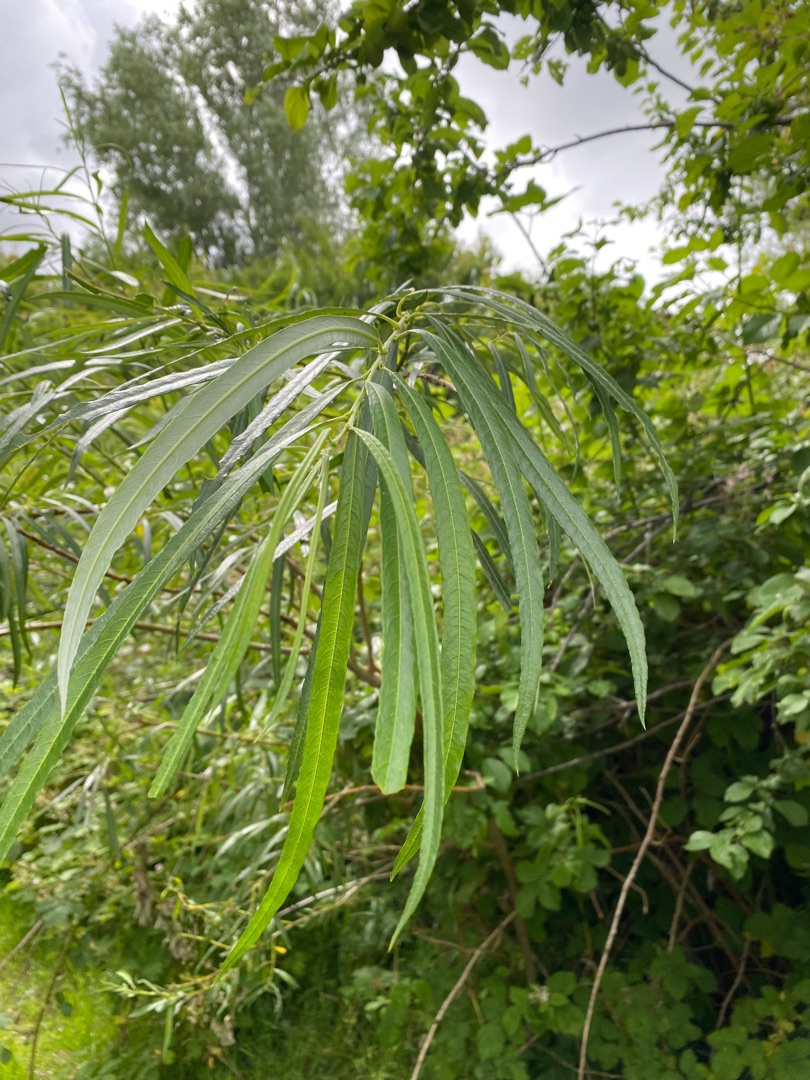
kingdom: Plantae
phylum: Tracheophyta
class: Magnoliopsida
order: Malpighiales
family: Salicaceae
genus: Salix
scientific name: Salix viminalis
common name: Bånd-pil
